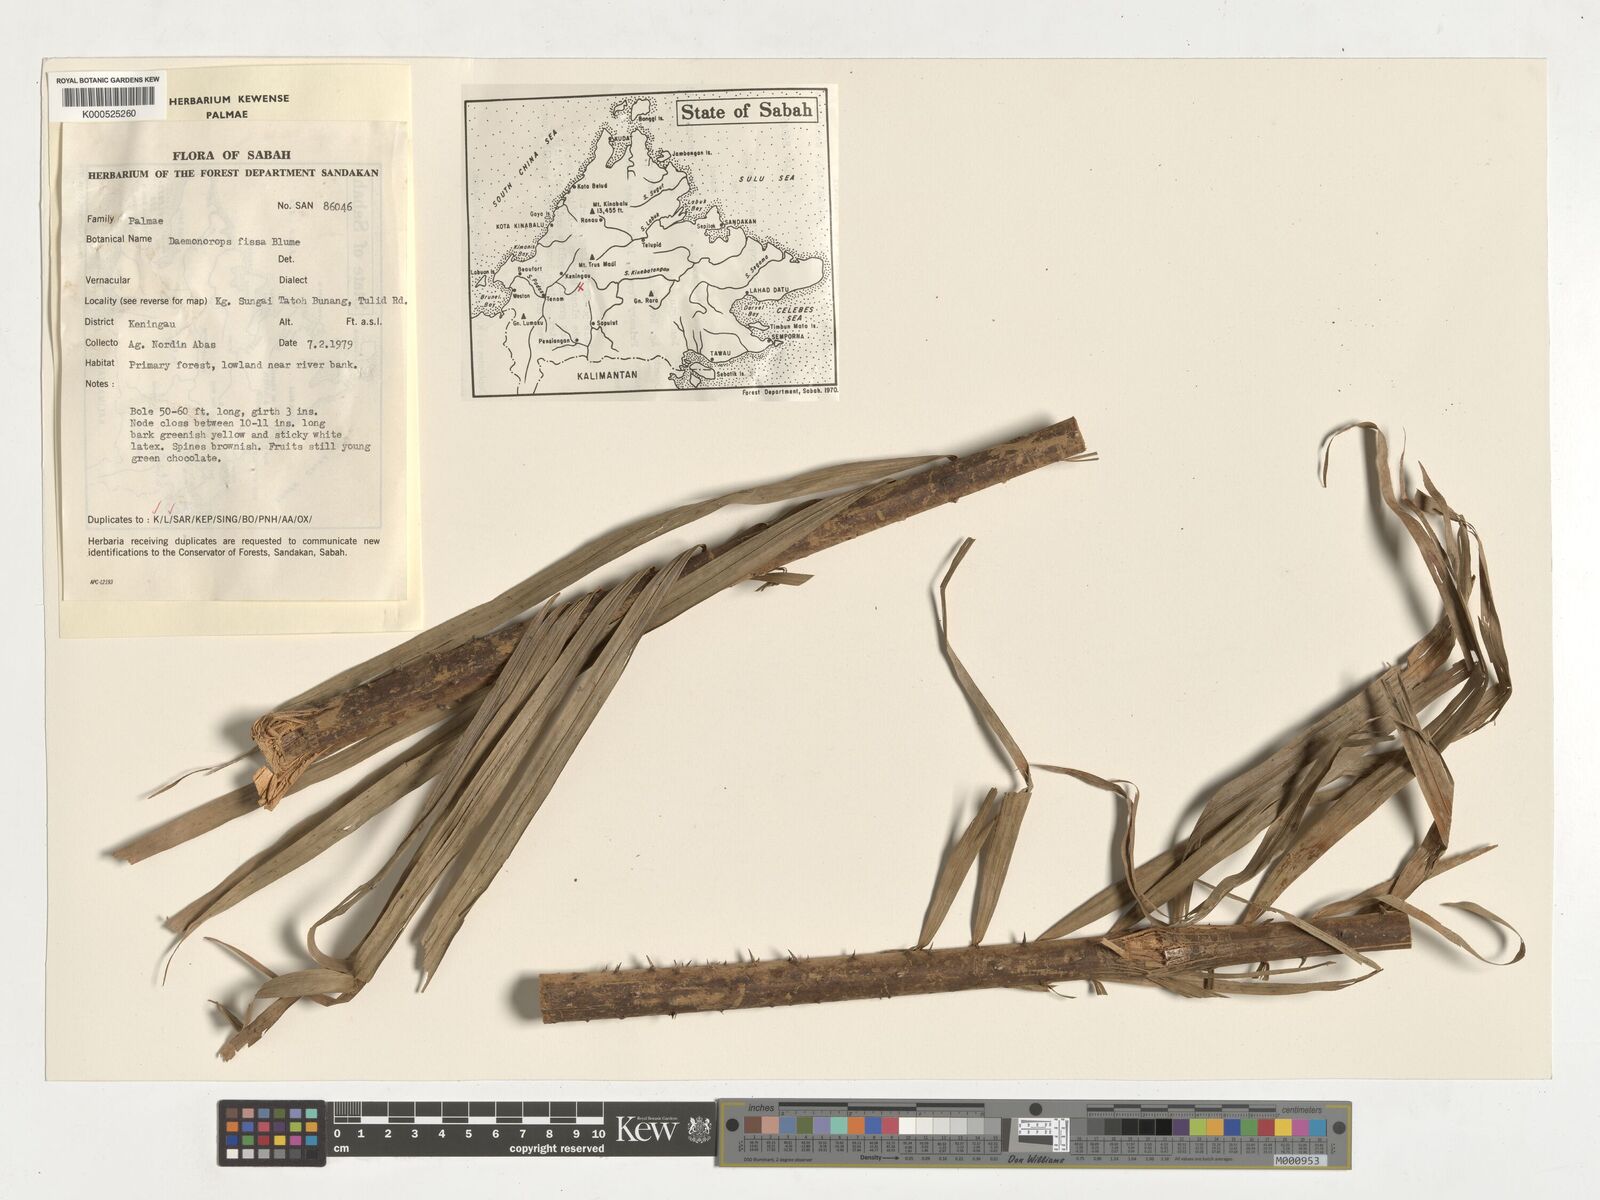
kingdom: Plantae
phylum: Tracheophyta
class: Liliopsida
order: Arecales
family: Arecaceae
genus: Calamus
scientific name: Calamus melanochaetes
